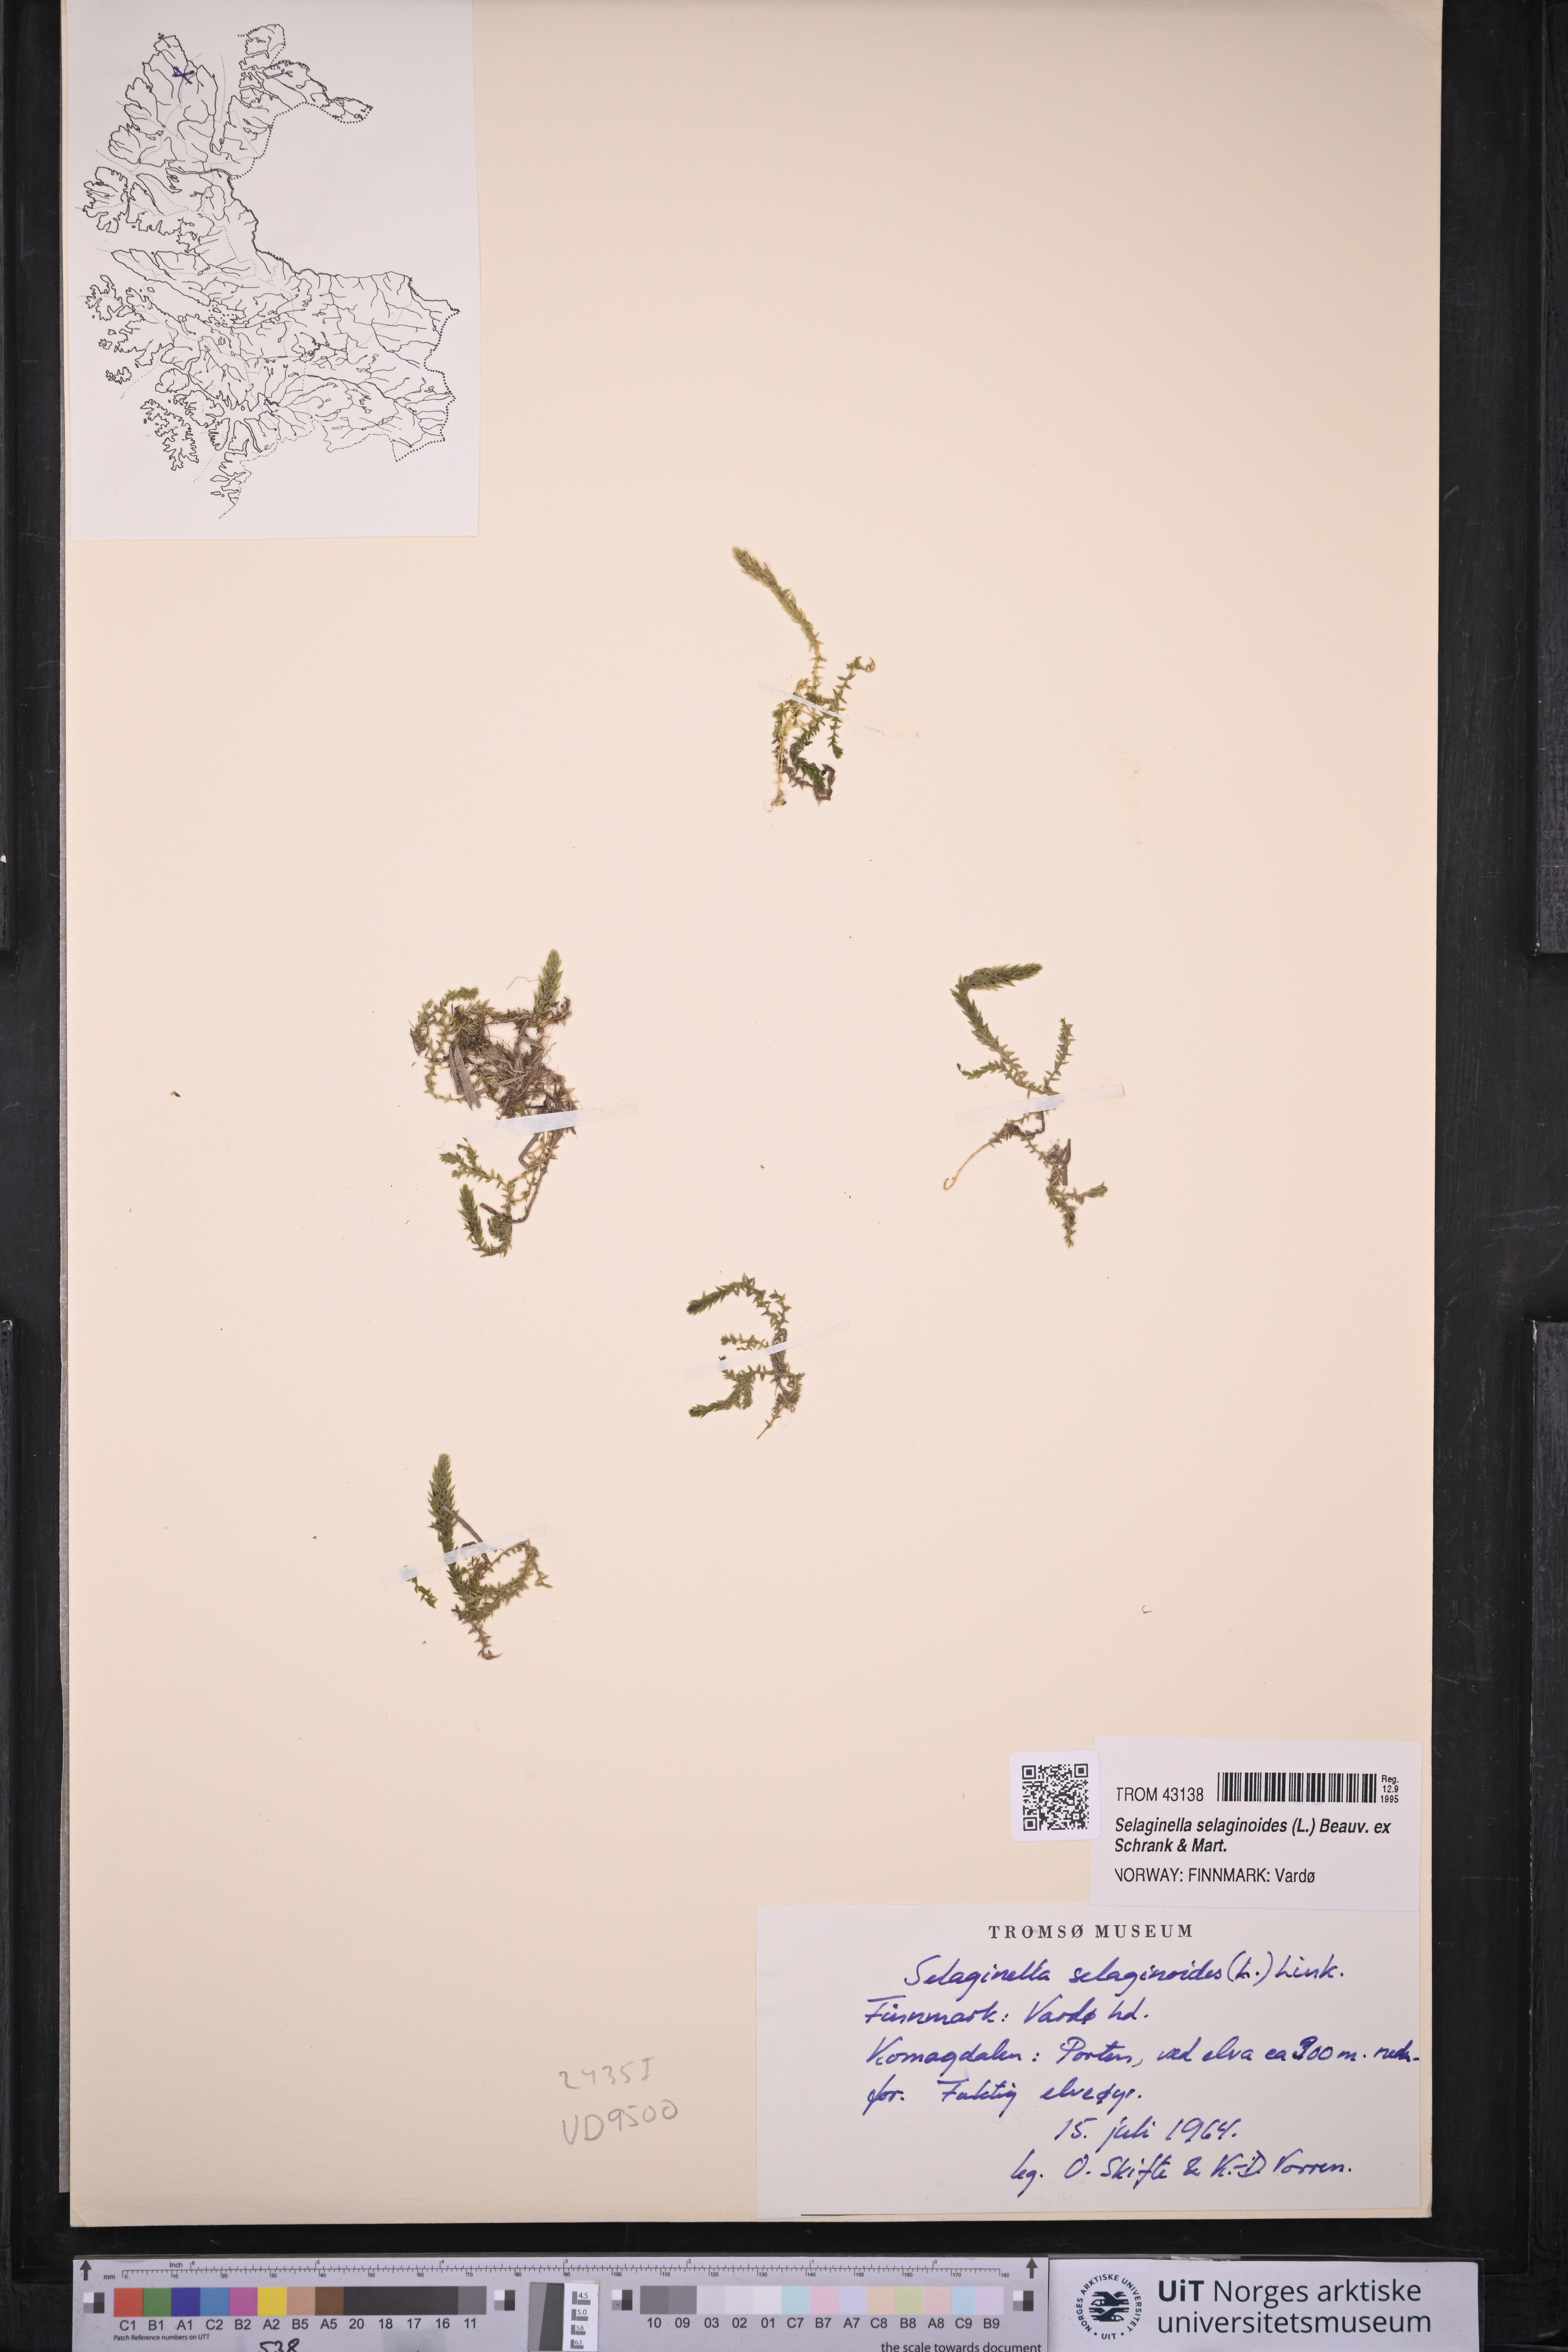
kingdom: Plantae
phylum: Tracheophyta
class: Lycopodiopsida
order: Selaginellales
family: Selaginellaceae
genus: Selaginella
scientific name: Selaginella selaginoides
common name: Prickly mountain-moss
